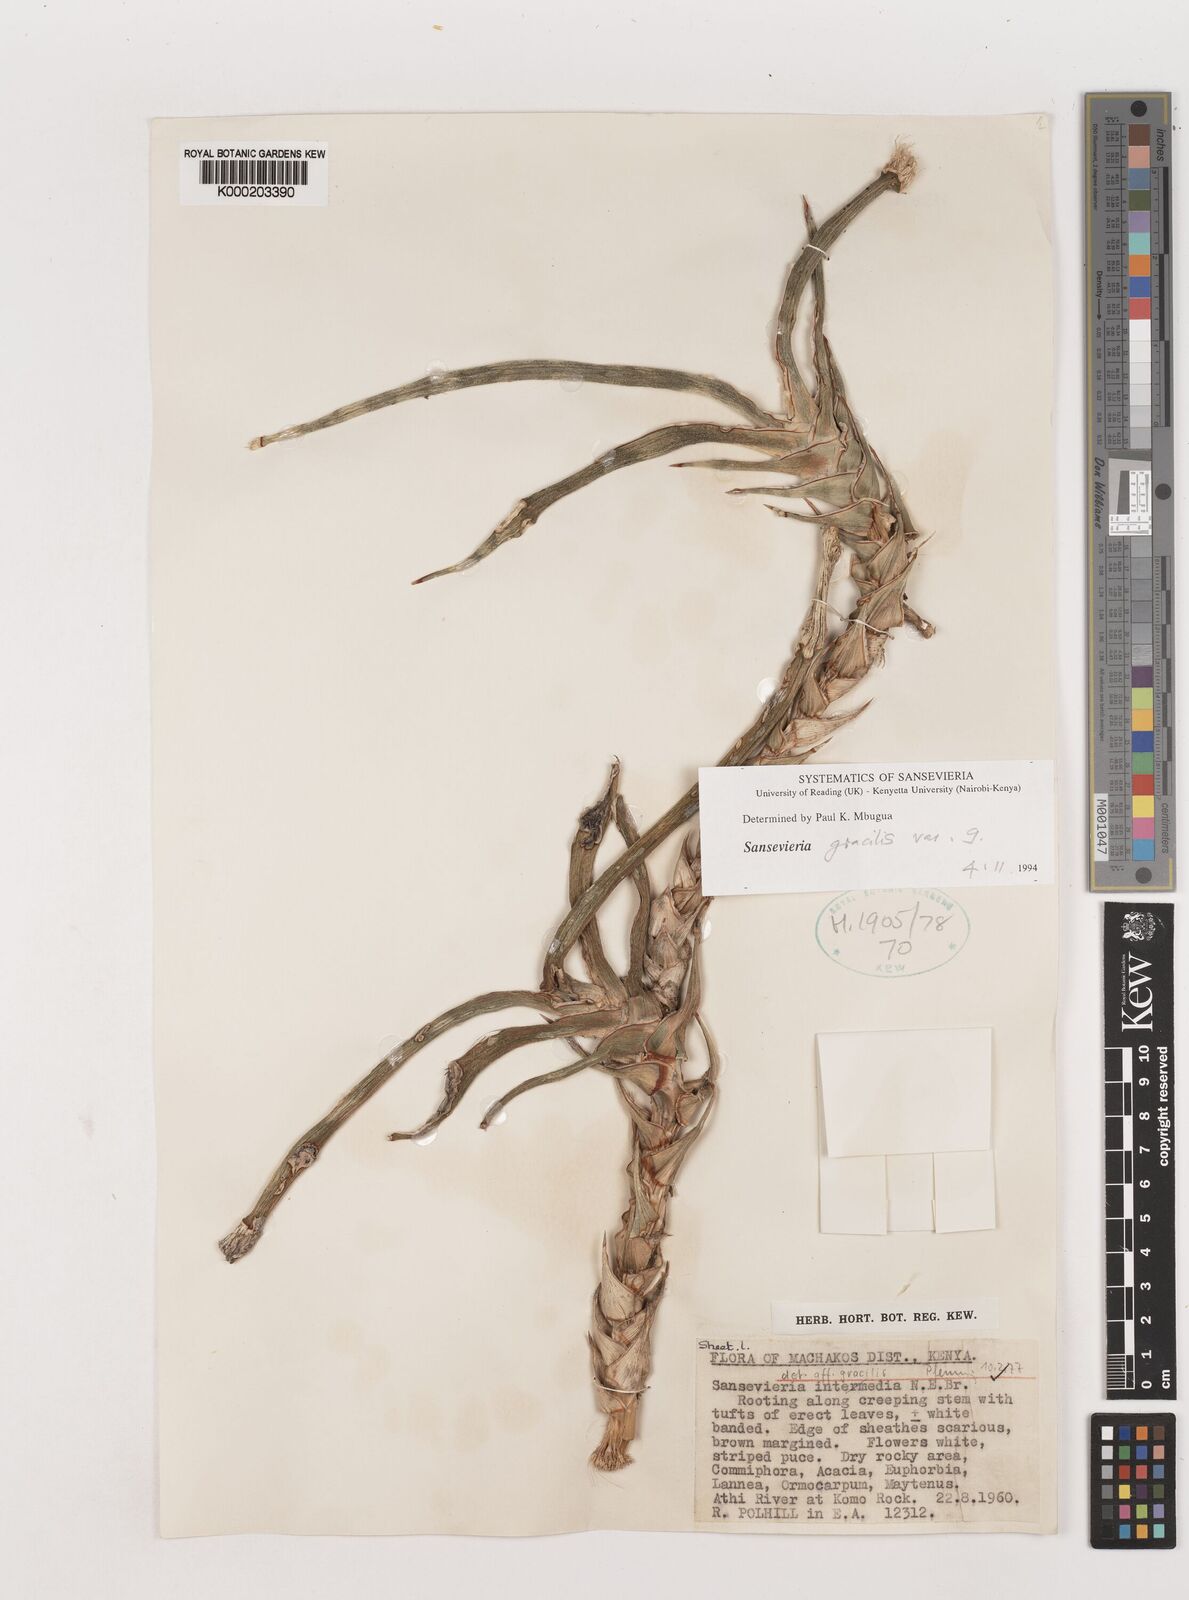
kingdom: Plantae
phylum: Tracheophyta
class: Liliopsida
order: Asparagales
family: Asparagaceae
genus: Dracaena
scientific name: Dracaena serpenta
